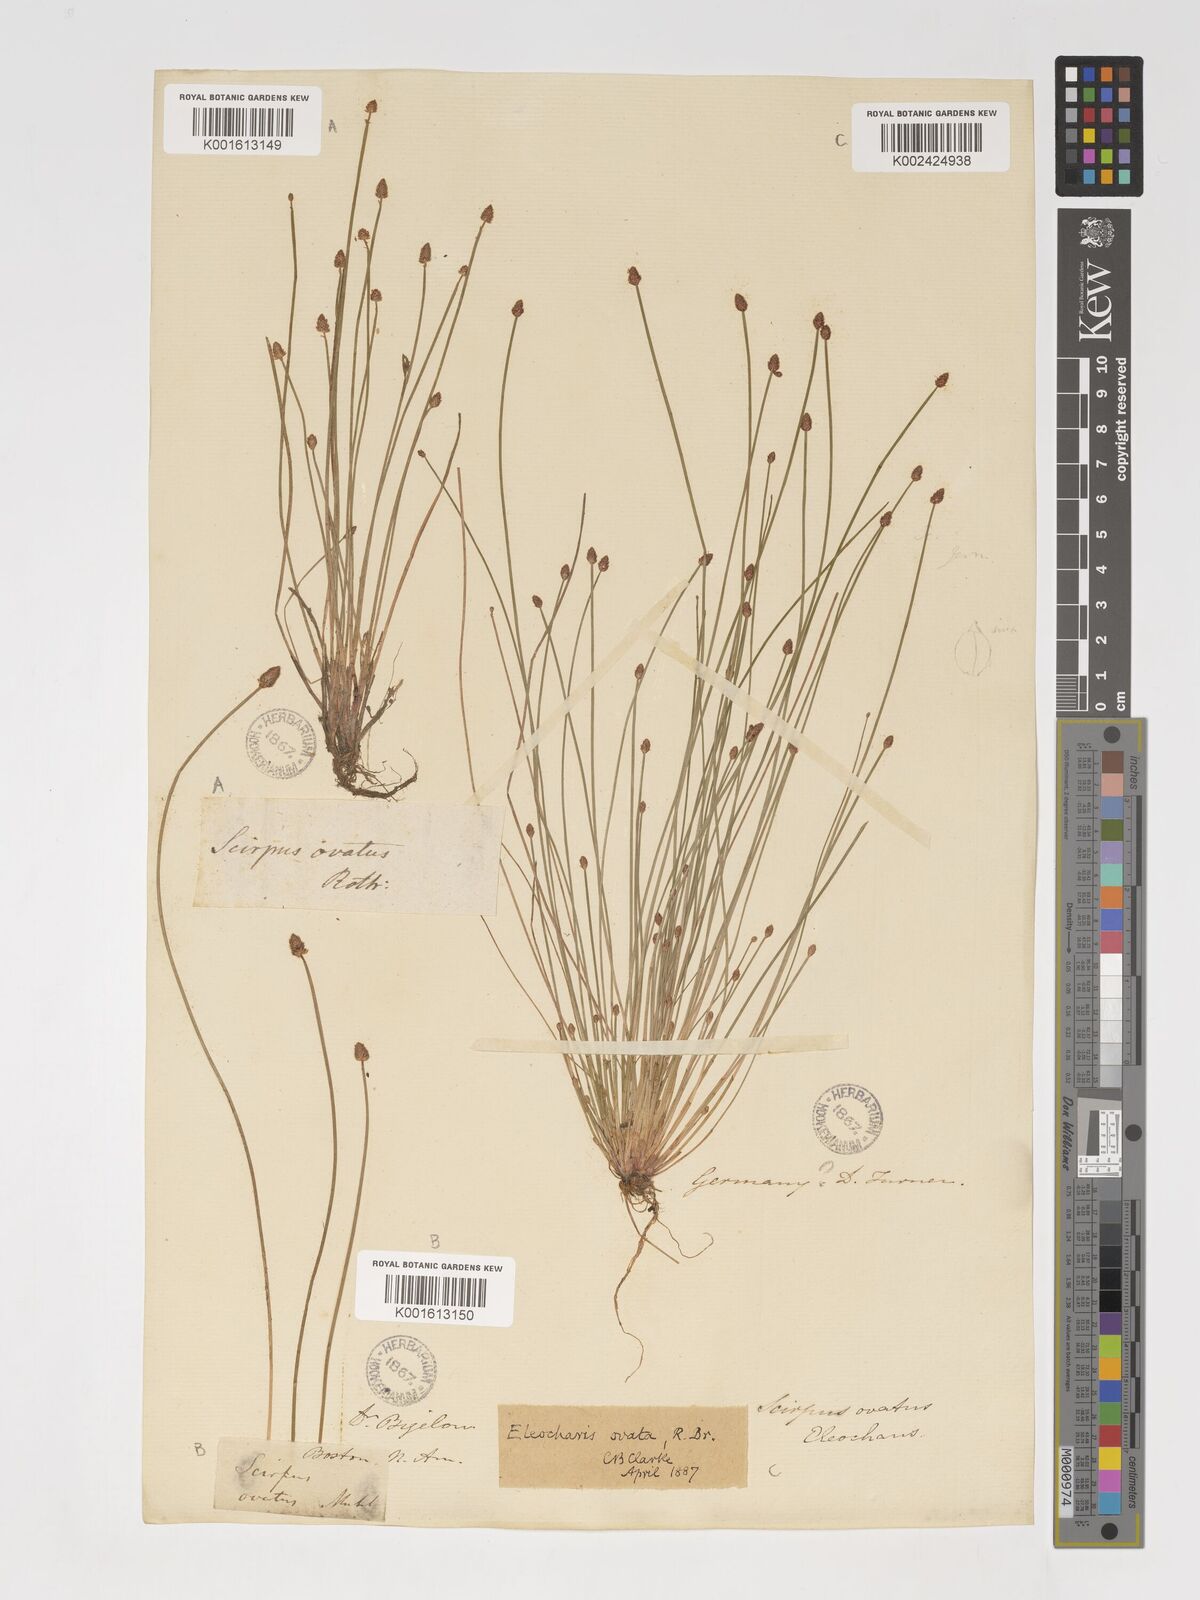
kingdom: Plantae
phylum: Tracheophyta
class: Liliopsida
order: Poales
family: Cyperaceae
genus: Eleocharis
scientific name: Eleocharis ovata
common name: Oval spike-rush
